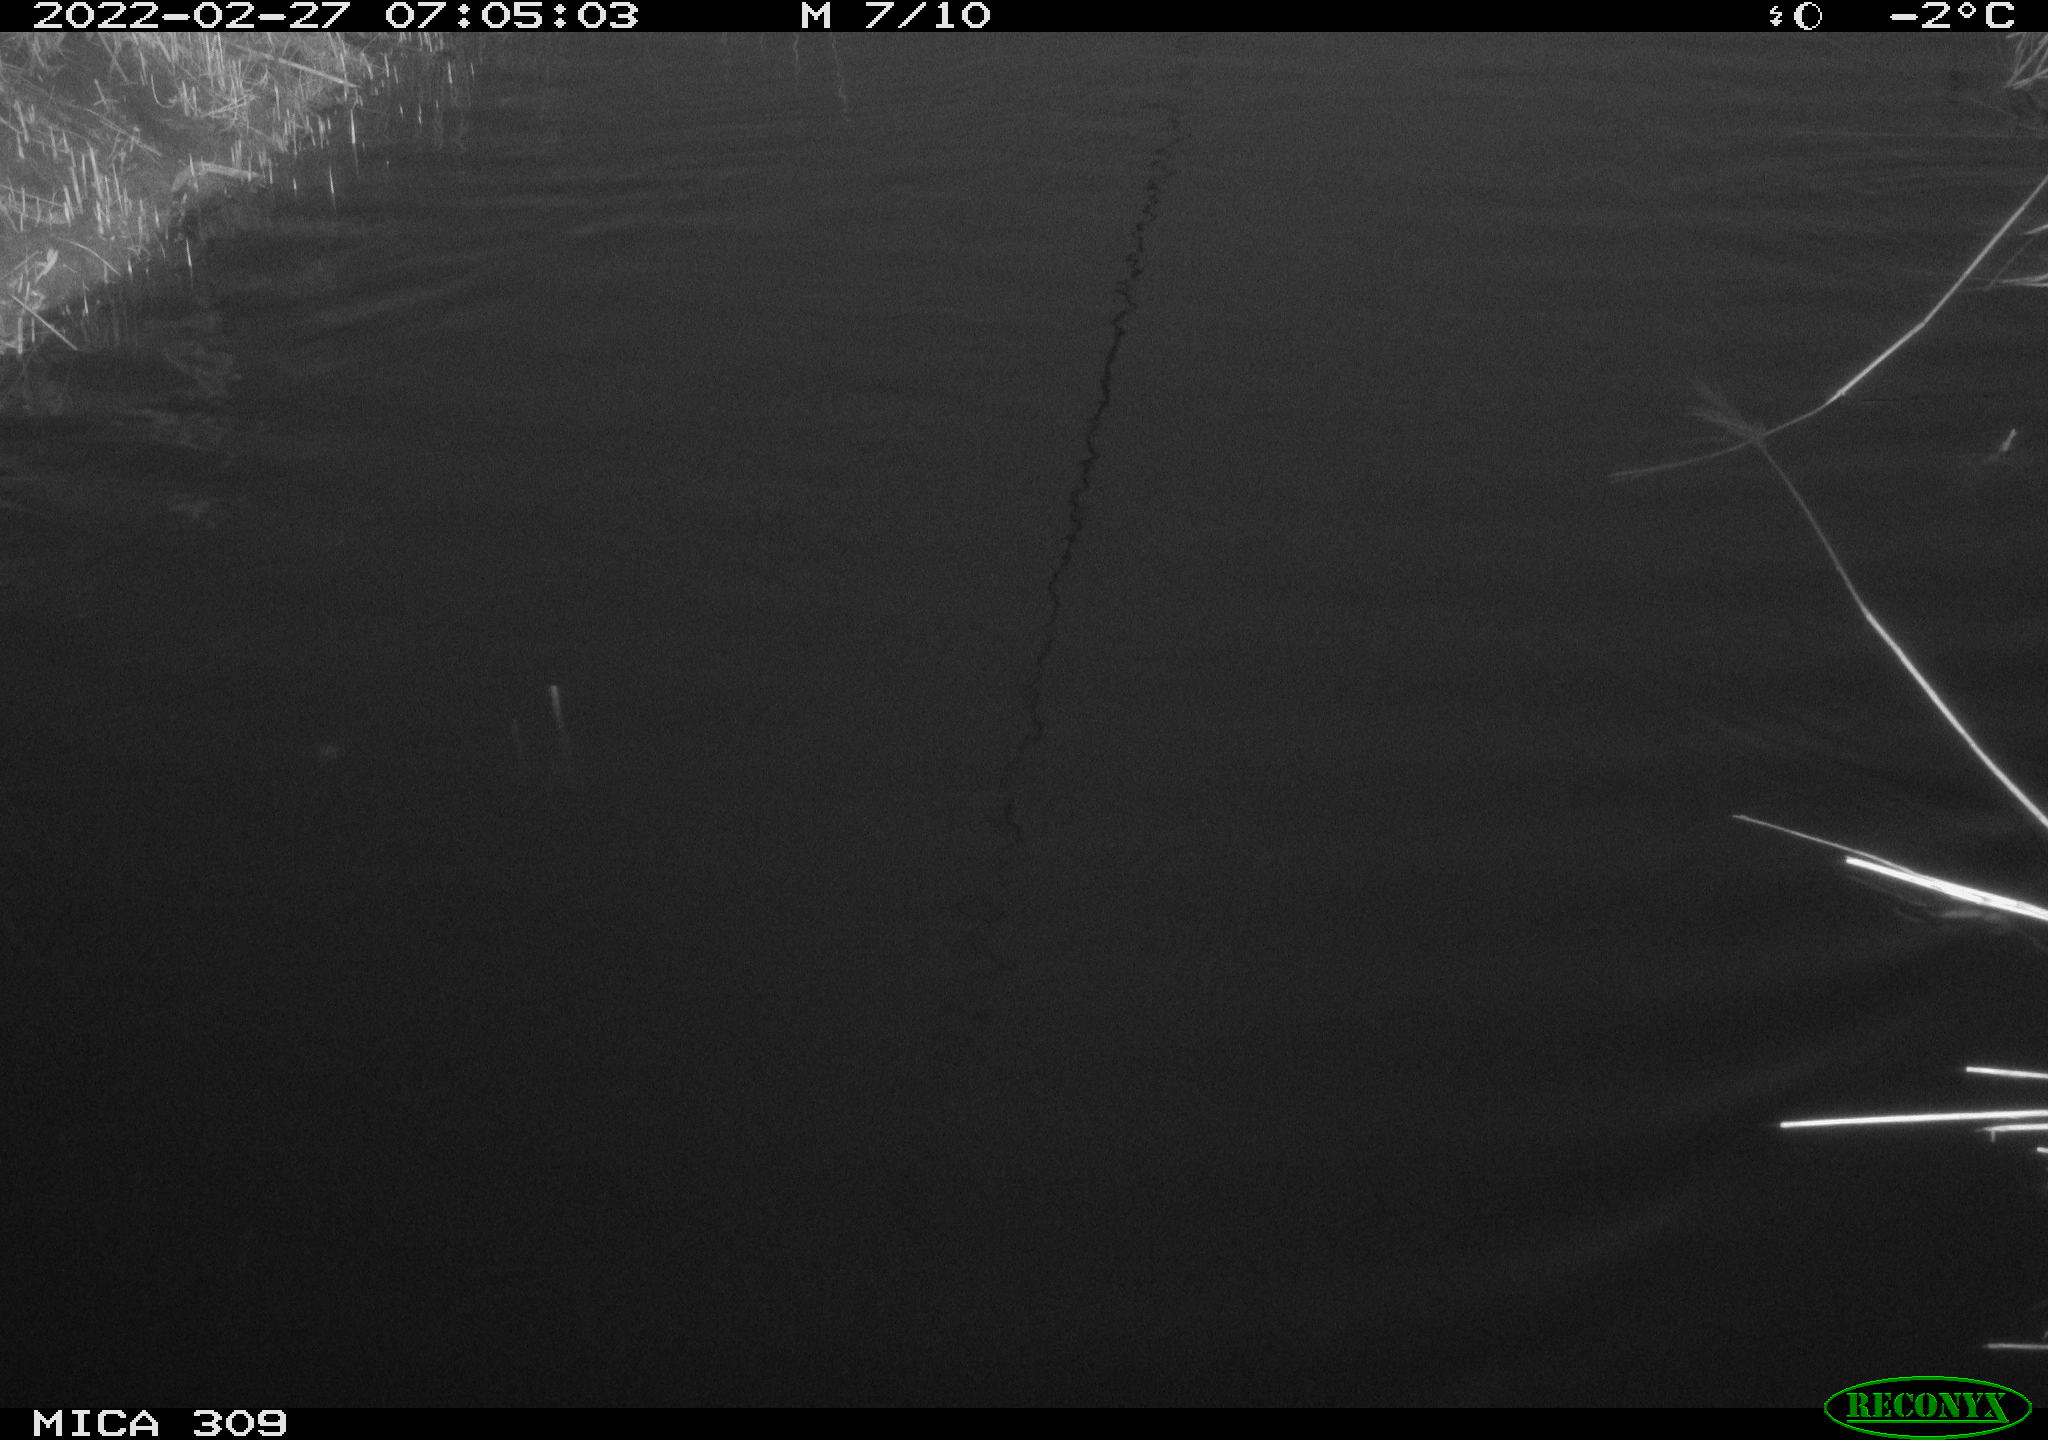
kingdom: Animalia
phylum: Chordata
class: Aves
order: Gruiformes
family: Rallidae
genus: Gallinula
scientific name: Gallinula chloropus
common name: Common moorhen
